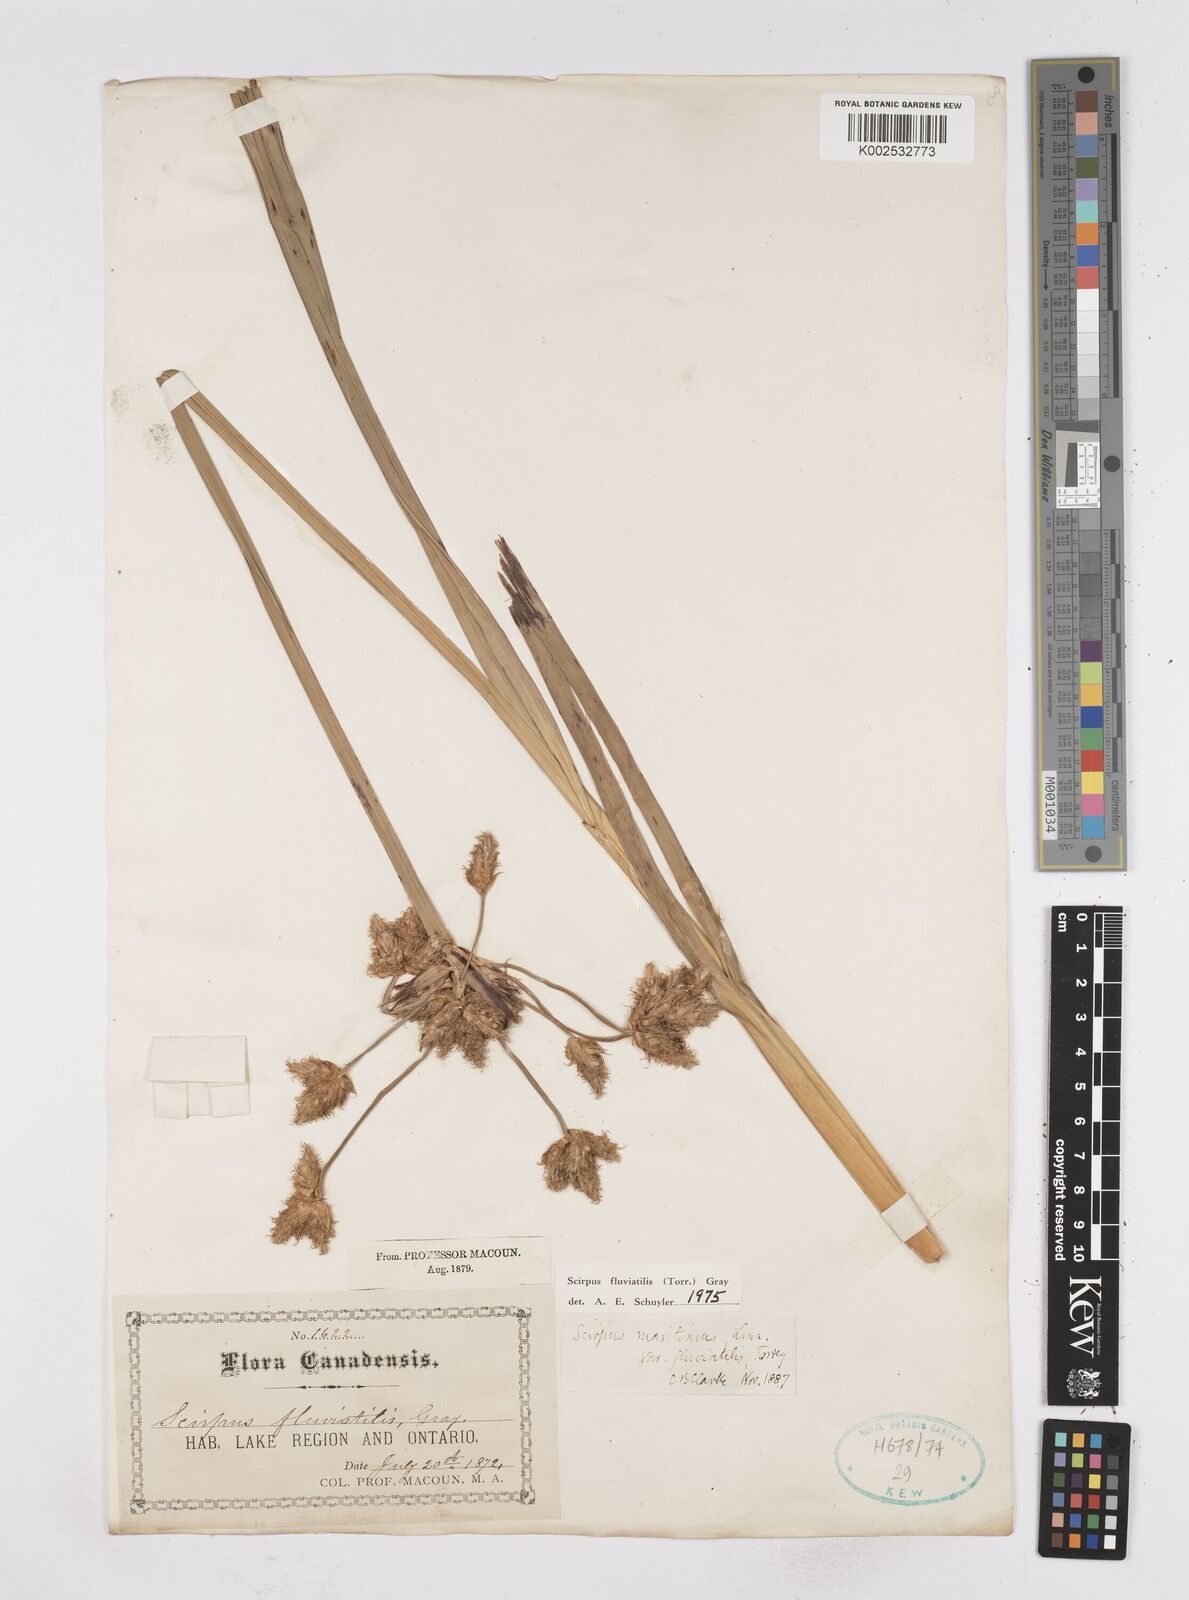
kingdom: Plantae
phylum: Tracheophyta
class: Liliopsida
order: Poales
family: Cyperaceae
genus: Bolboschoenus
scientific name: Bolboschoenus
